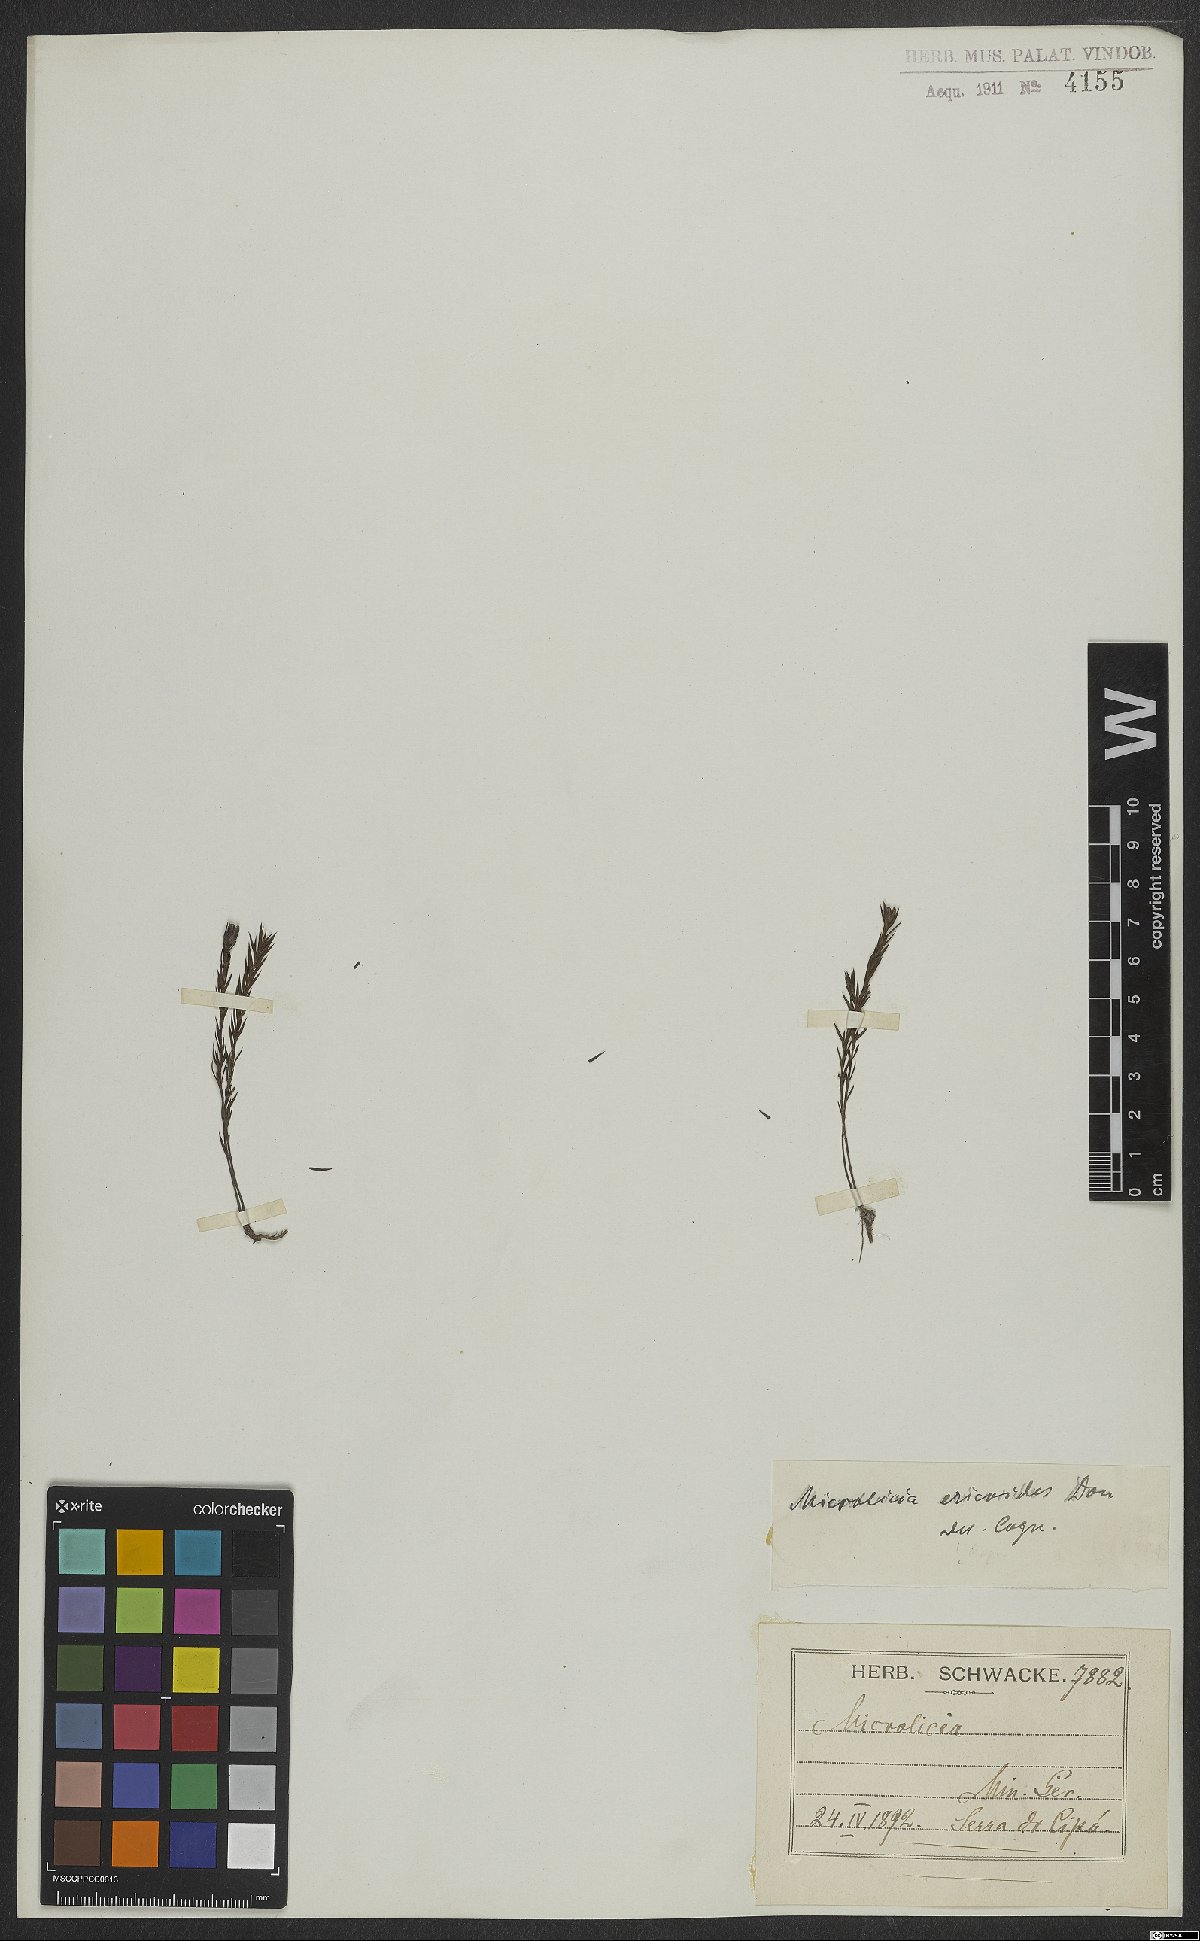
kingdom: Plantae
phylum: Tracheophyta
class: Magnoliopsida
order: Myrtales
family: Melastomataceae
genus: Microlicia
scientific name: Microlicia ericoides
